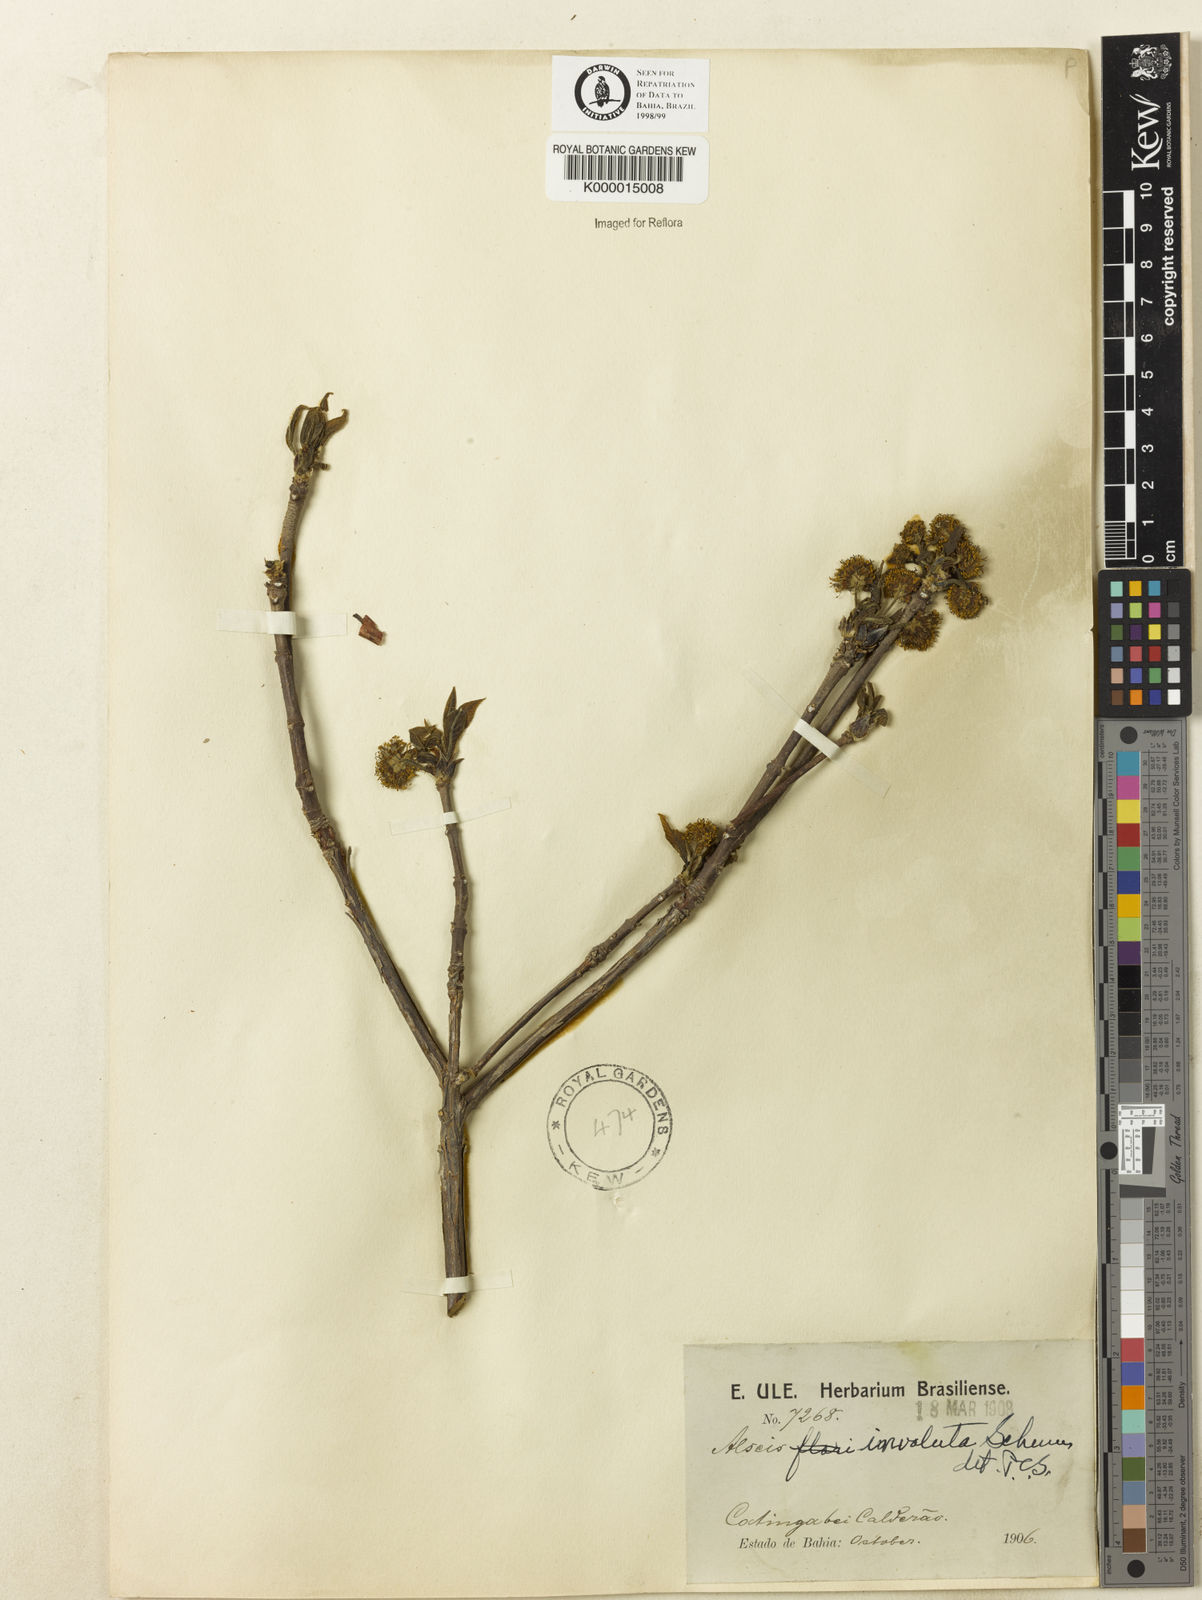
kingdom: Plantae
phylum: Tracheophyta
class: Magnoliopsida
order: Gentianales
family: Rubiaceae
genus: Alseis
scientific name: Alseis involuta
